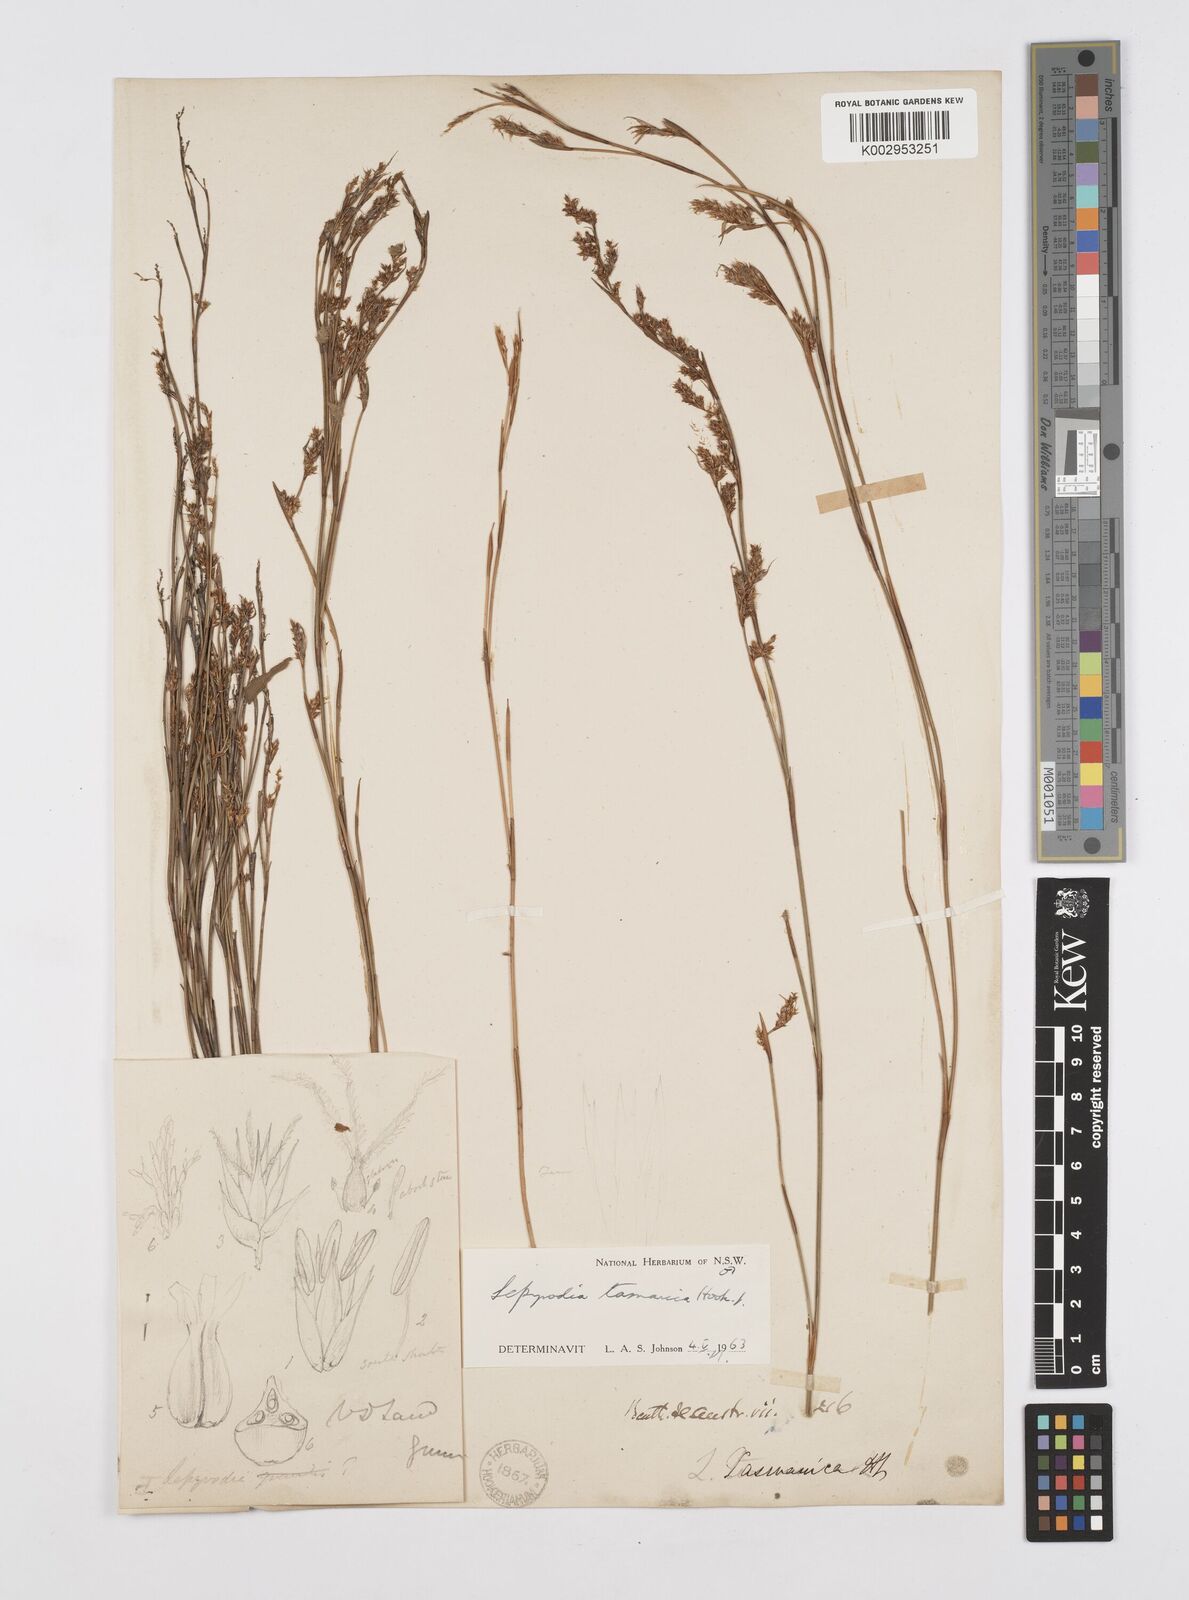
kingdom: Plantae
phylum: Tracheophyta
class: Liliopsida
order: Poales
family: Restionaceae
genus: Sporadanthus
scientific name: Sporadanthus tasmanicus
